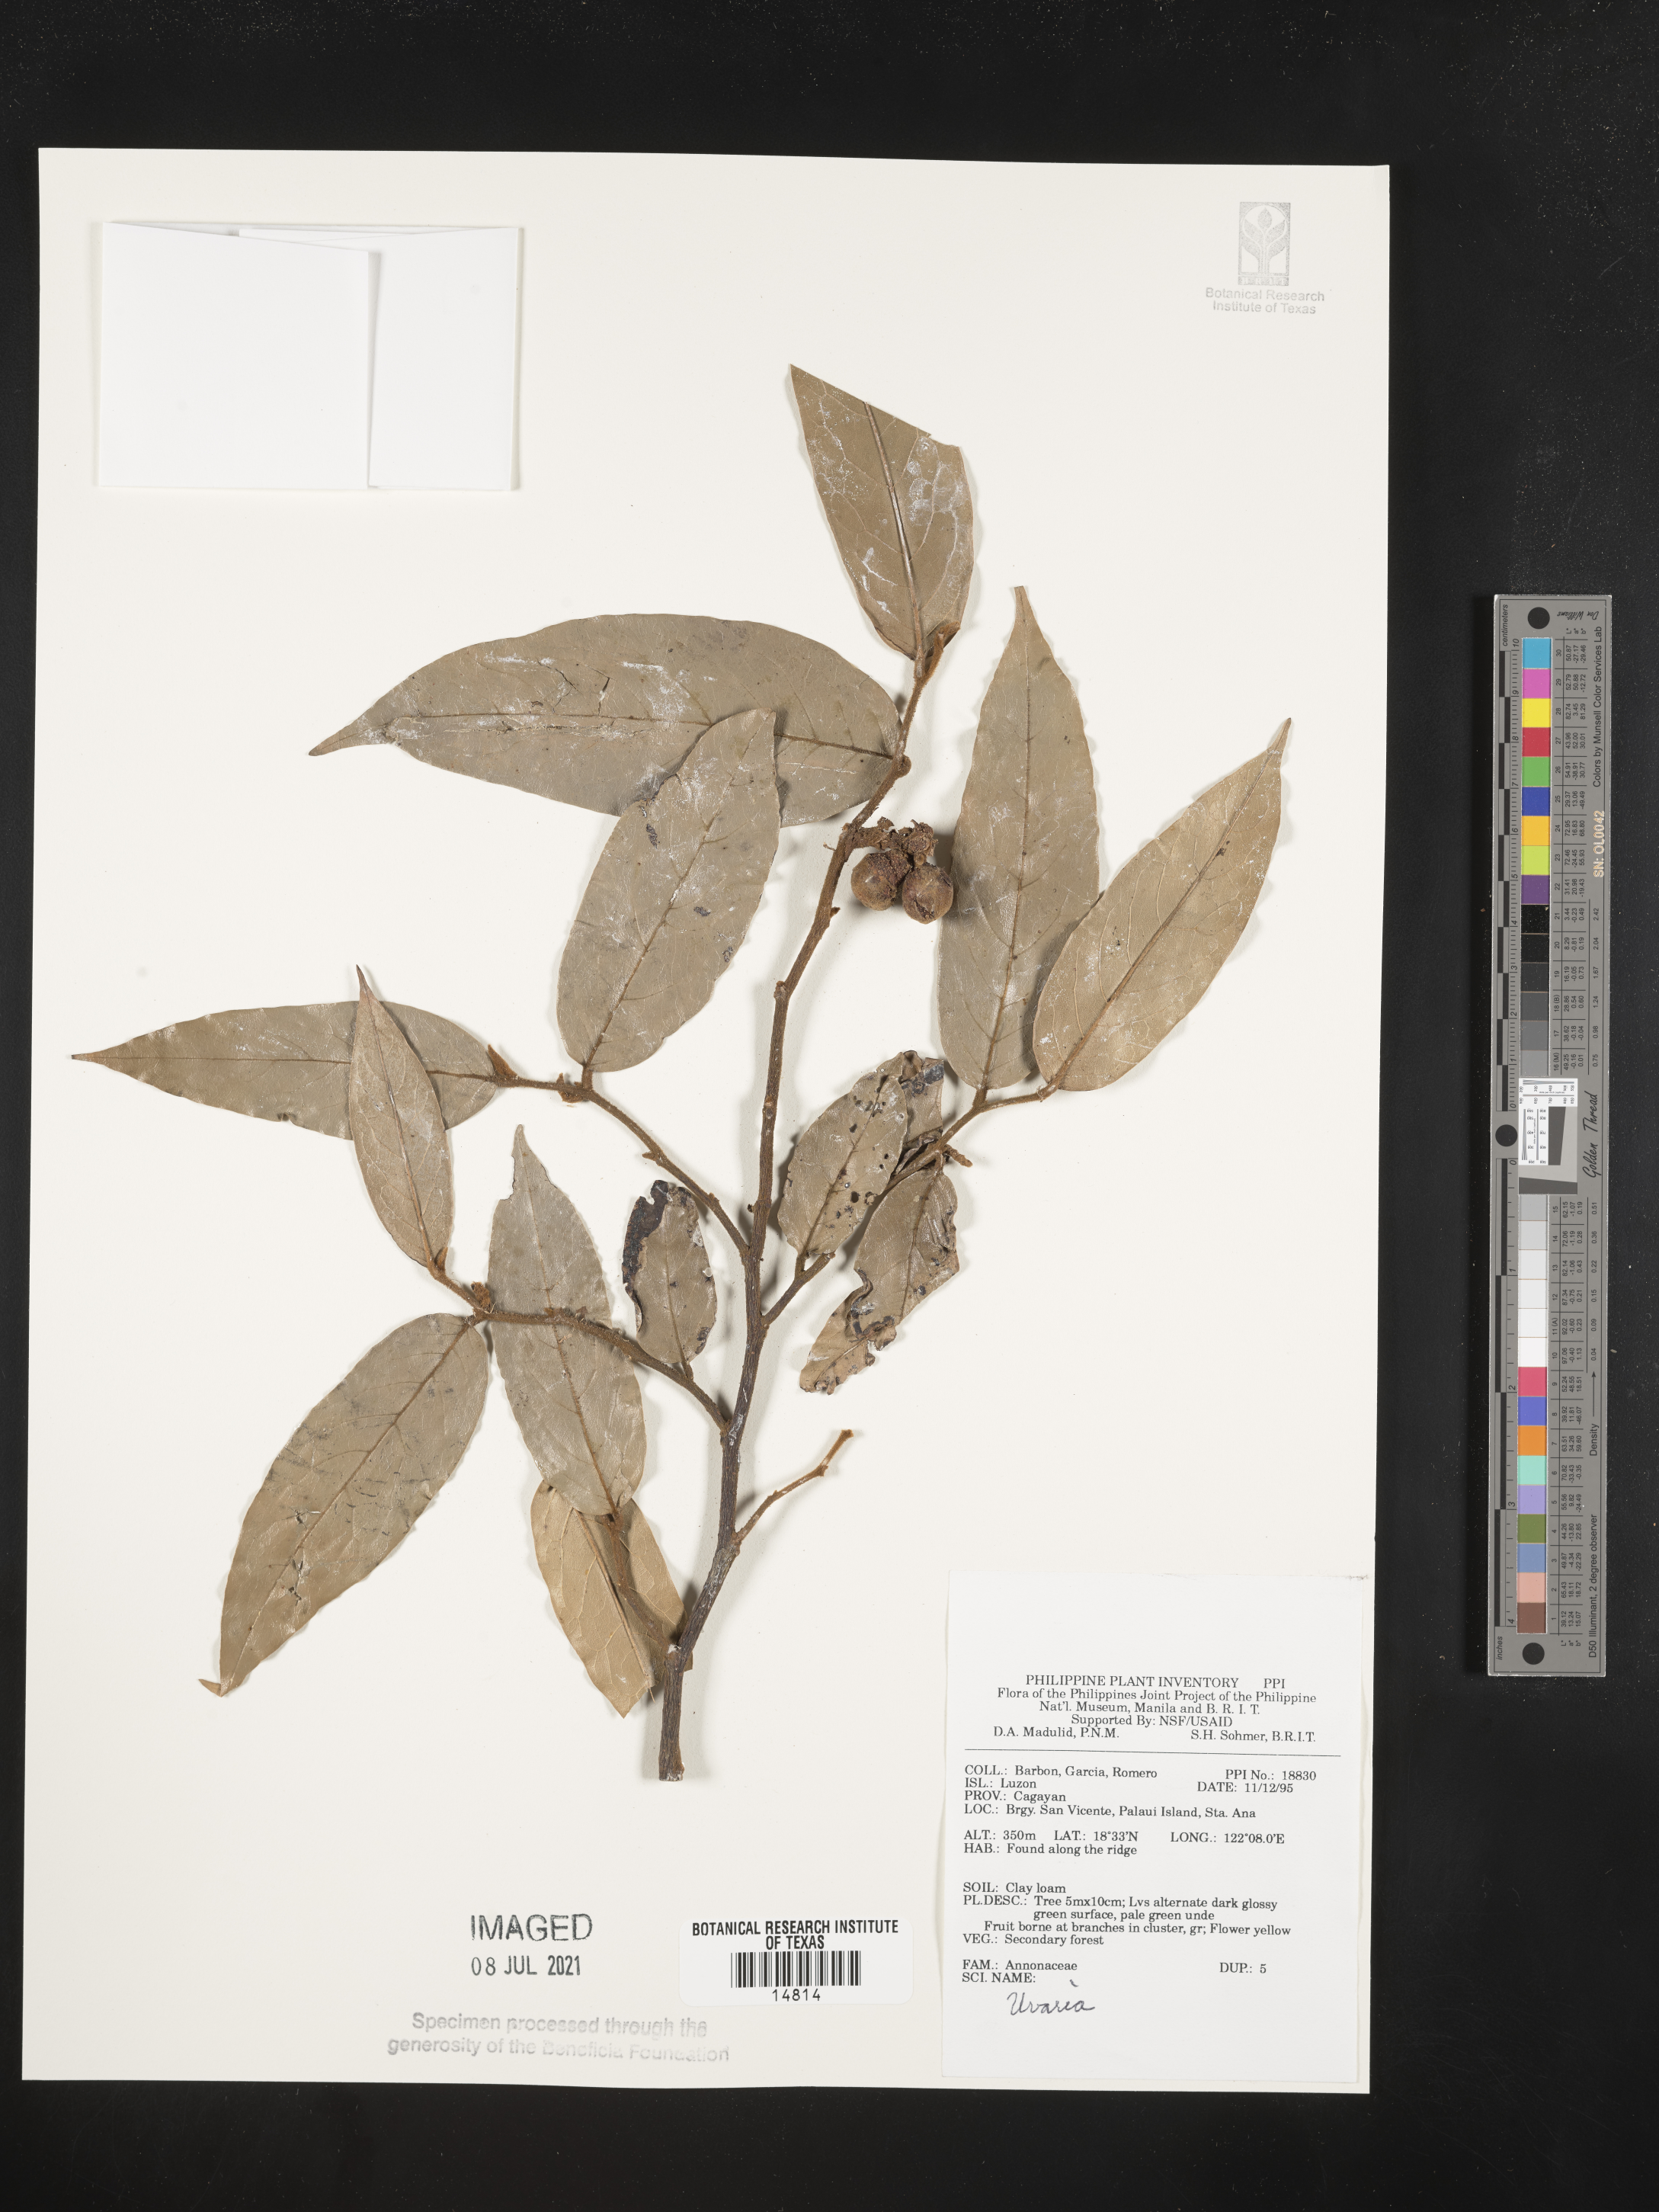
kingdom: Plantae
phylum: Tracheophyta
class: Magnoliopsida
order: Magnoliales
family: Annonaceae
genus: Uvaria
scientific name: Uvaria
